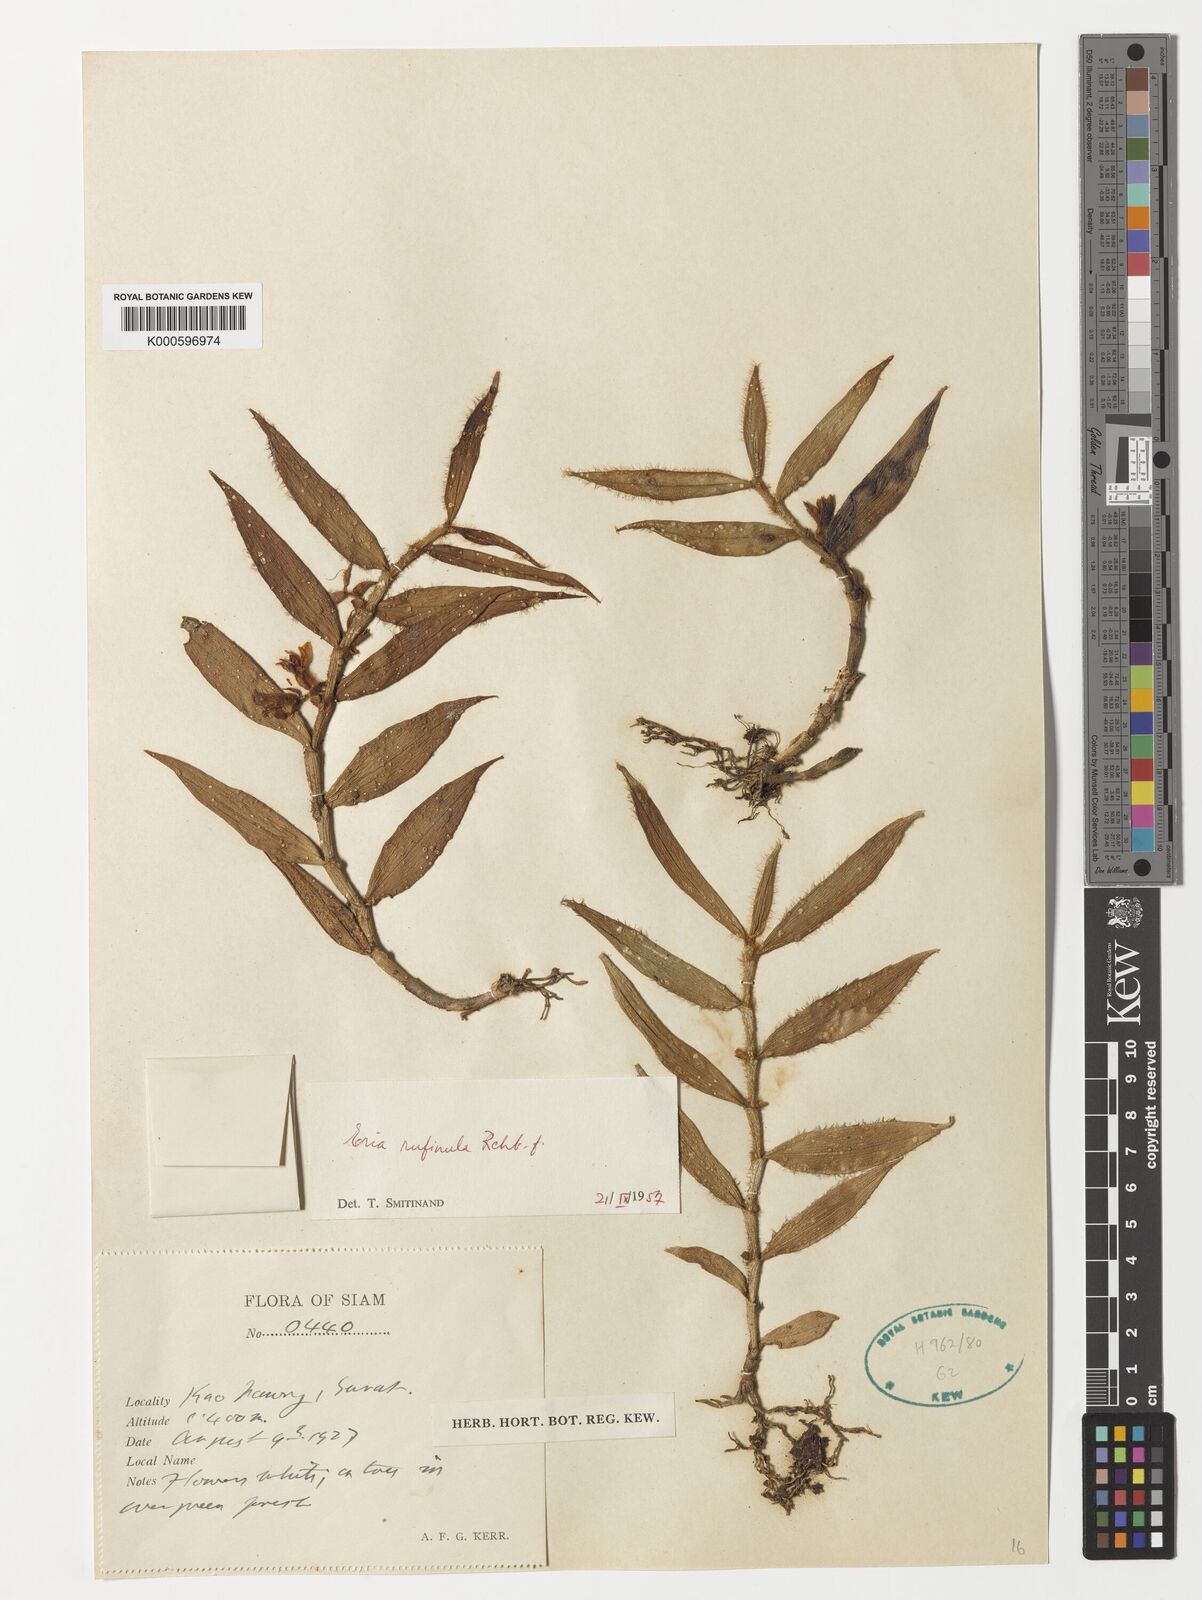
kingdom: Plantae
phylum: Tracheophyta
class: Liliopsida
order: Asparagales
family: Orchidaceae
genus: Trichotosia
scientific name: Trichotosia pulvinata
